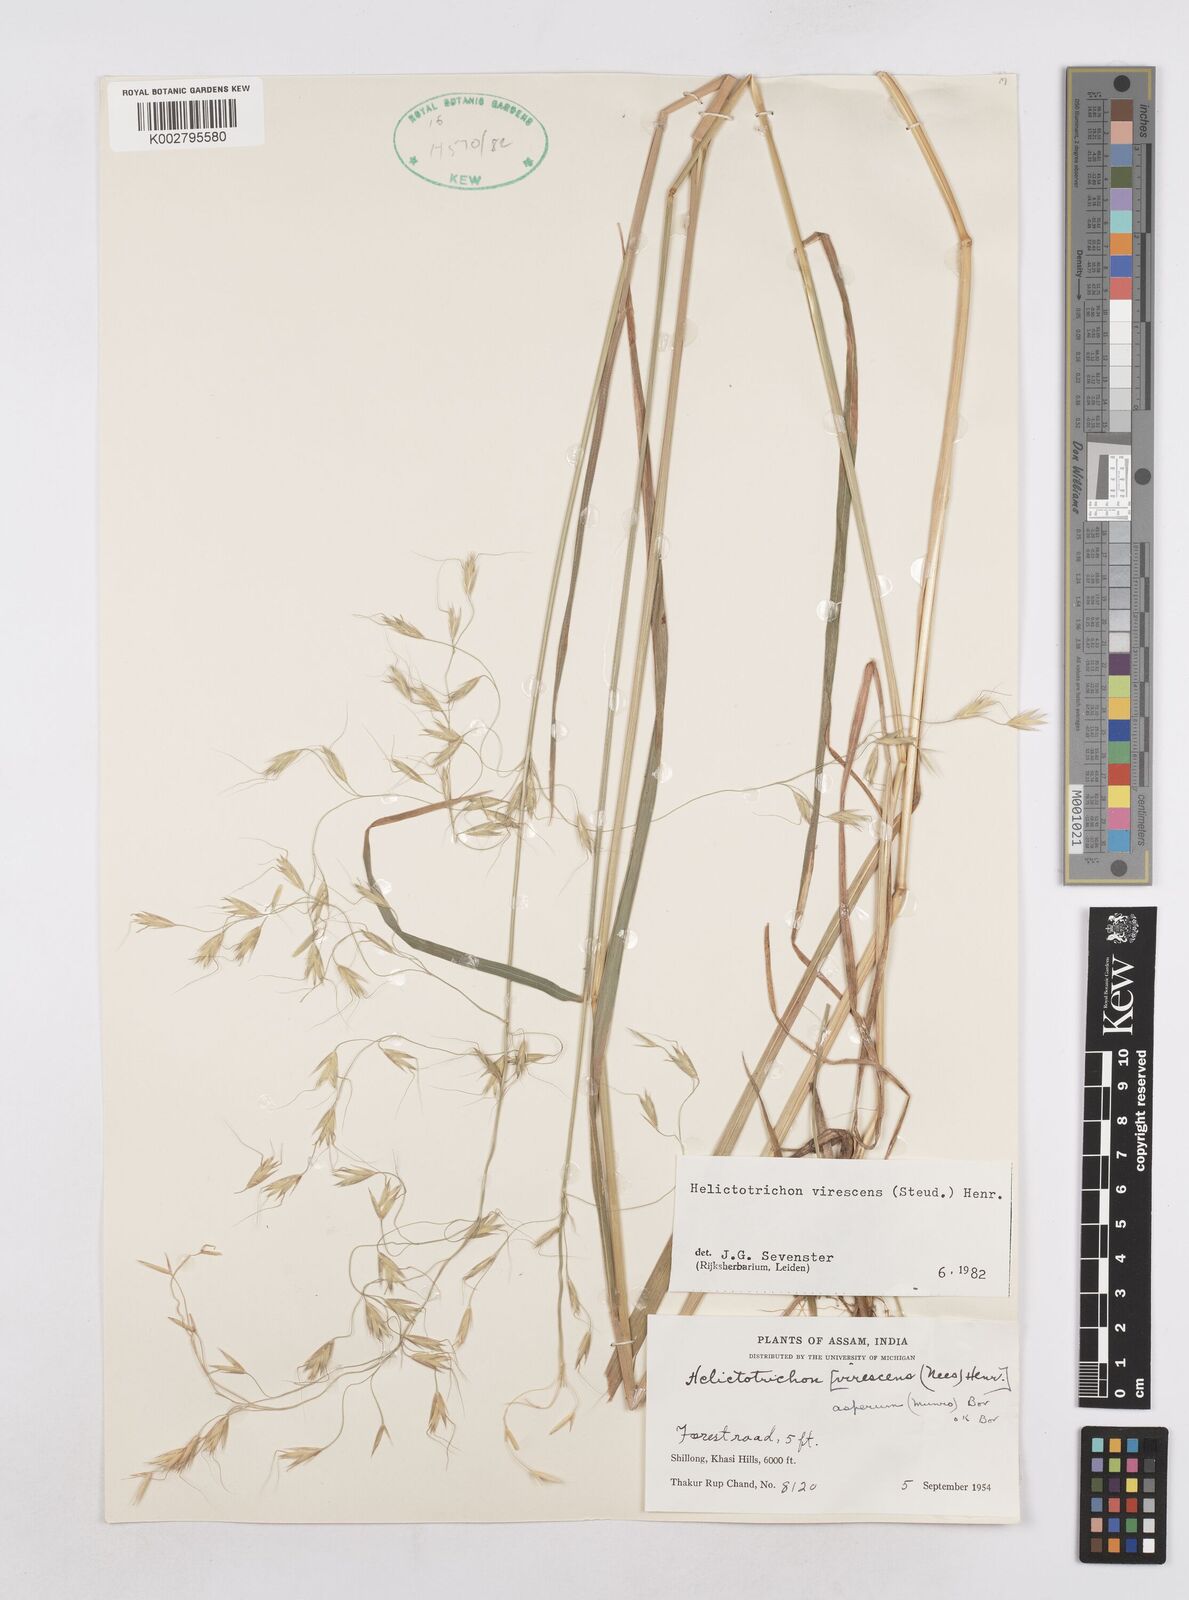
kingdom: Plantae
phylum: Tracheophyta
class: Liliopsida
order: Poales
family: Poaceae
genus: Trisetopsis
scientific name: Trisetopsis junghuhnii
